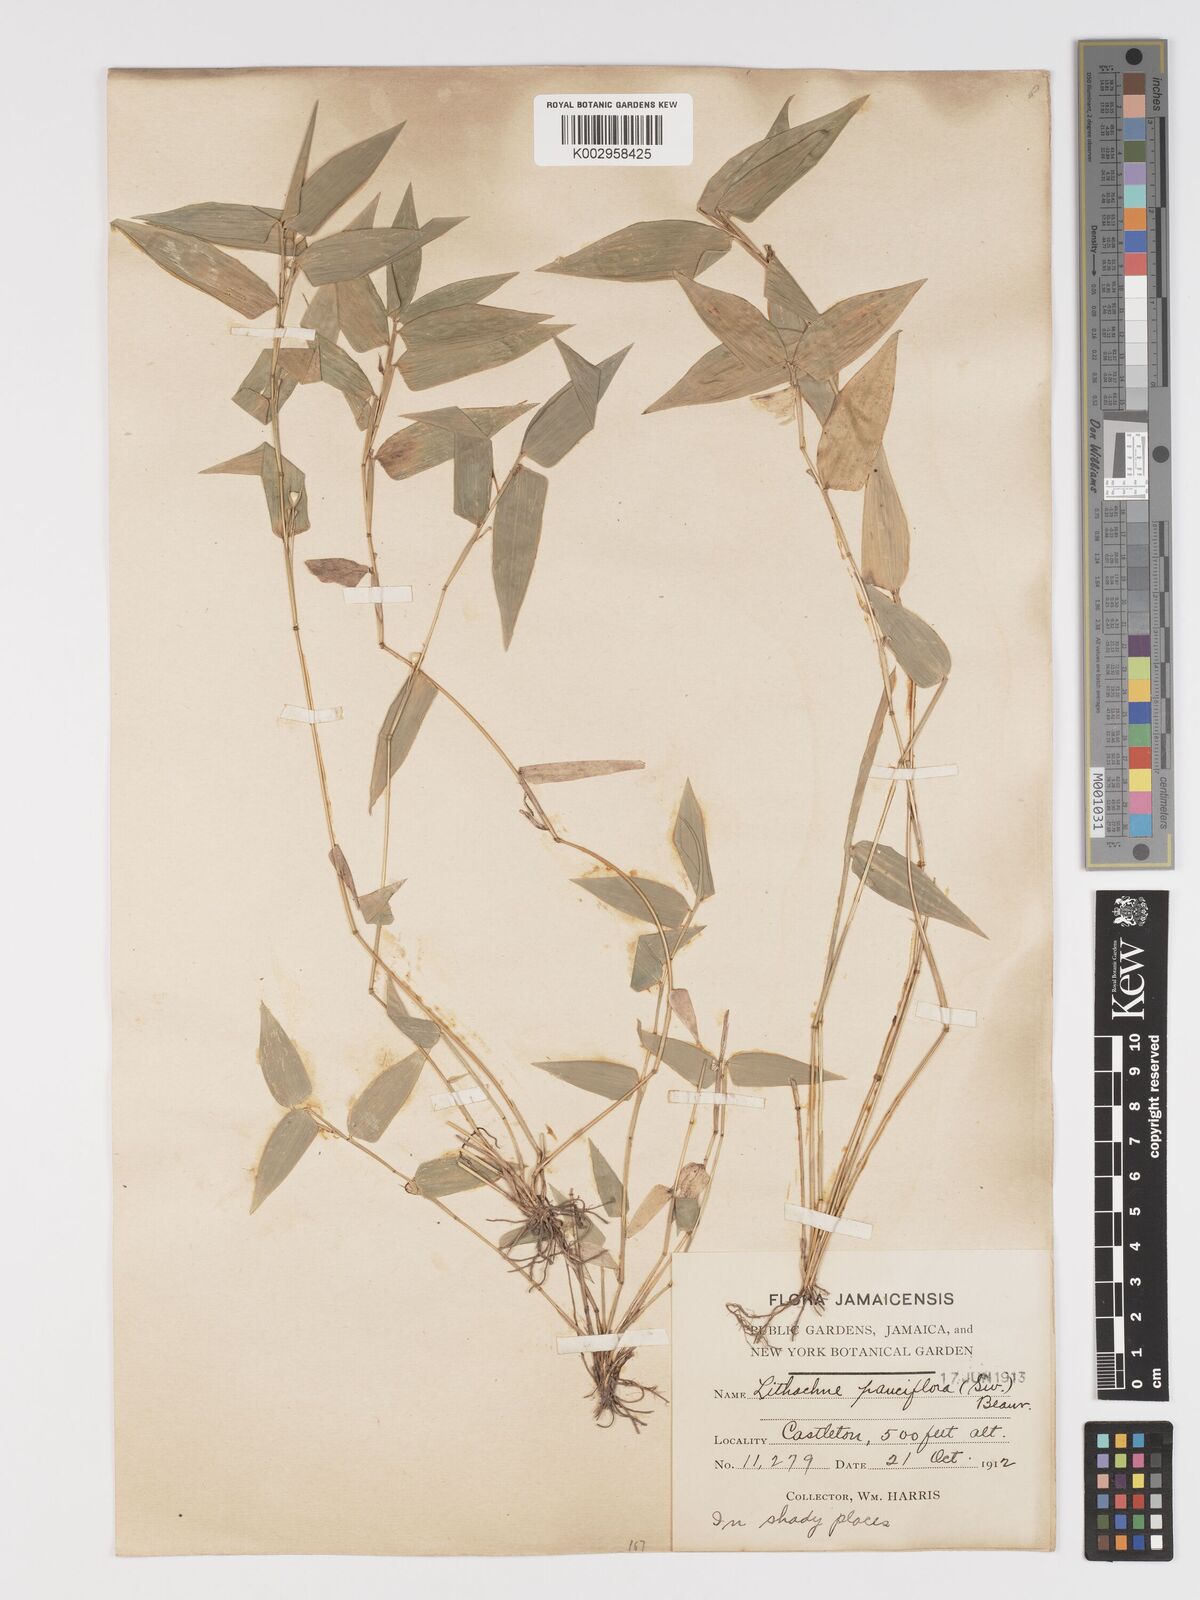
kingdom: Plantae
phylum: Tracheophyta
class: Liliopsida
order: Poales
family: Poaceae
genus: Lithachne
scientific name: Lithachne pauciflora
